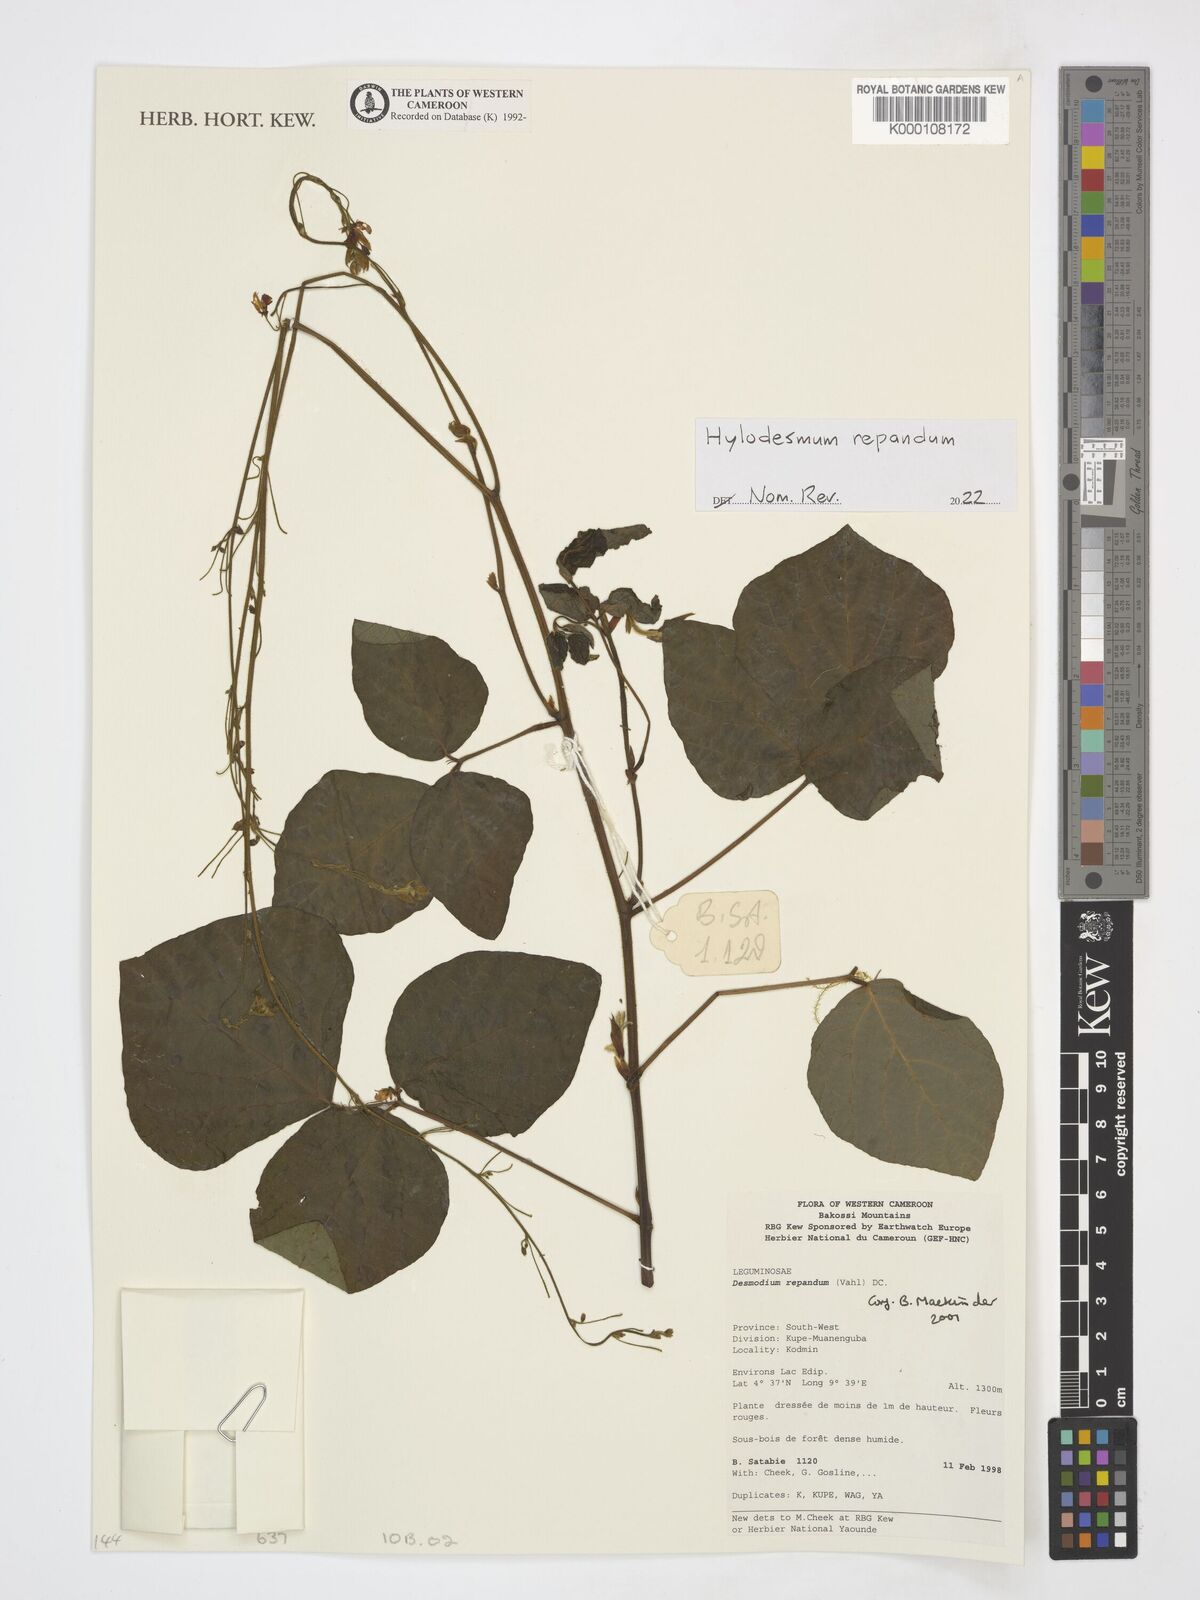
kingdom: Plantae
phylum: Tracheophyta
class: Magnoliopsida
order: Fabales
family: Fabaceae
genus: Desmodium
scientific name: Desmodium
